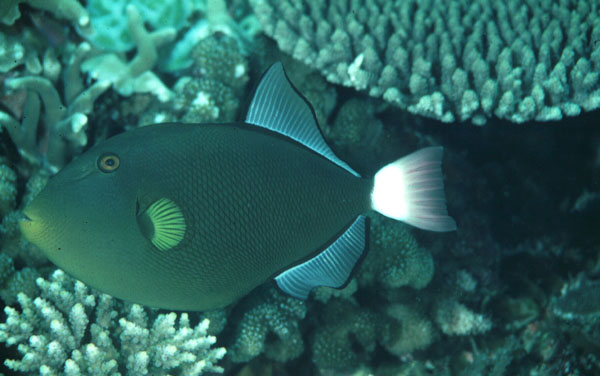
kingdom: Animalia
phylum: Chordata
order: Tetraodontiformes
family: Balistidae
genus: Melichthys
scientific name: Melichthys vidua
